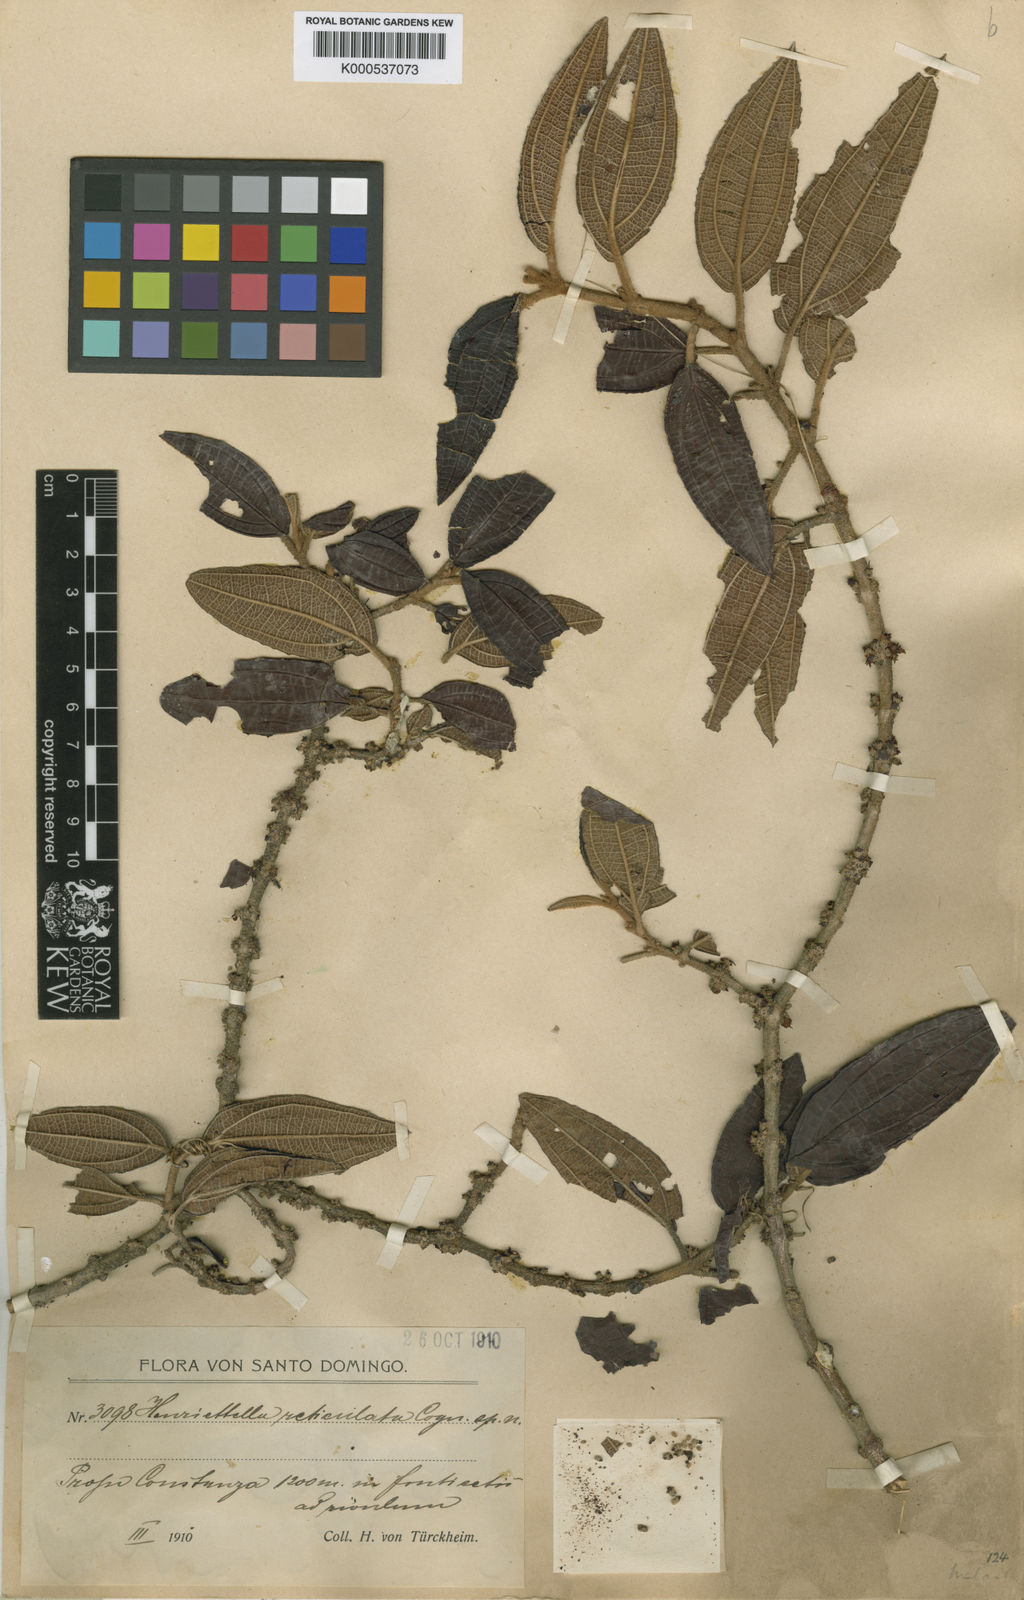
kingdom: Plantae
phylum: Tracheophyta
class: Magnoliopsida
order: Myrtales
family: Melastomataceae
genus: Miconia
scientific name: Miconia reticulatovenosa
